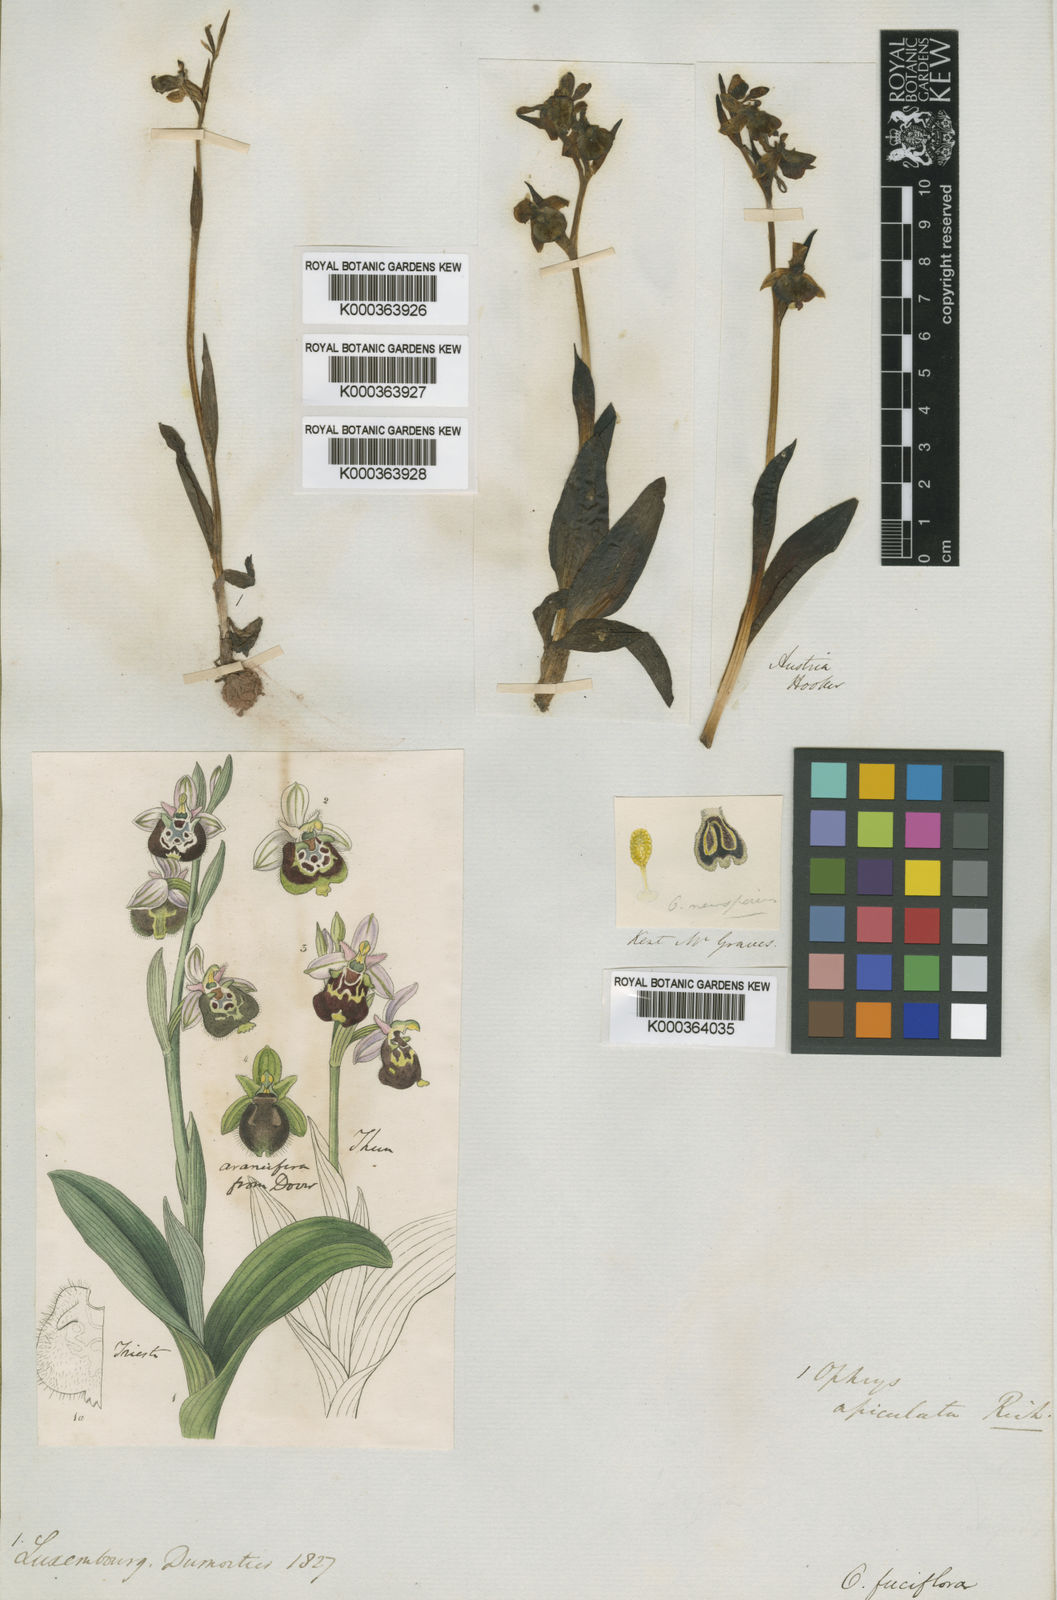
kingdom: Plantae
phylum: Tracheophyta
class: Liliopsida
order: Asparagales
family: Orchidaceae
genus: Ophrys
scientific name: Ophrys holosericea
